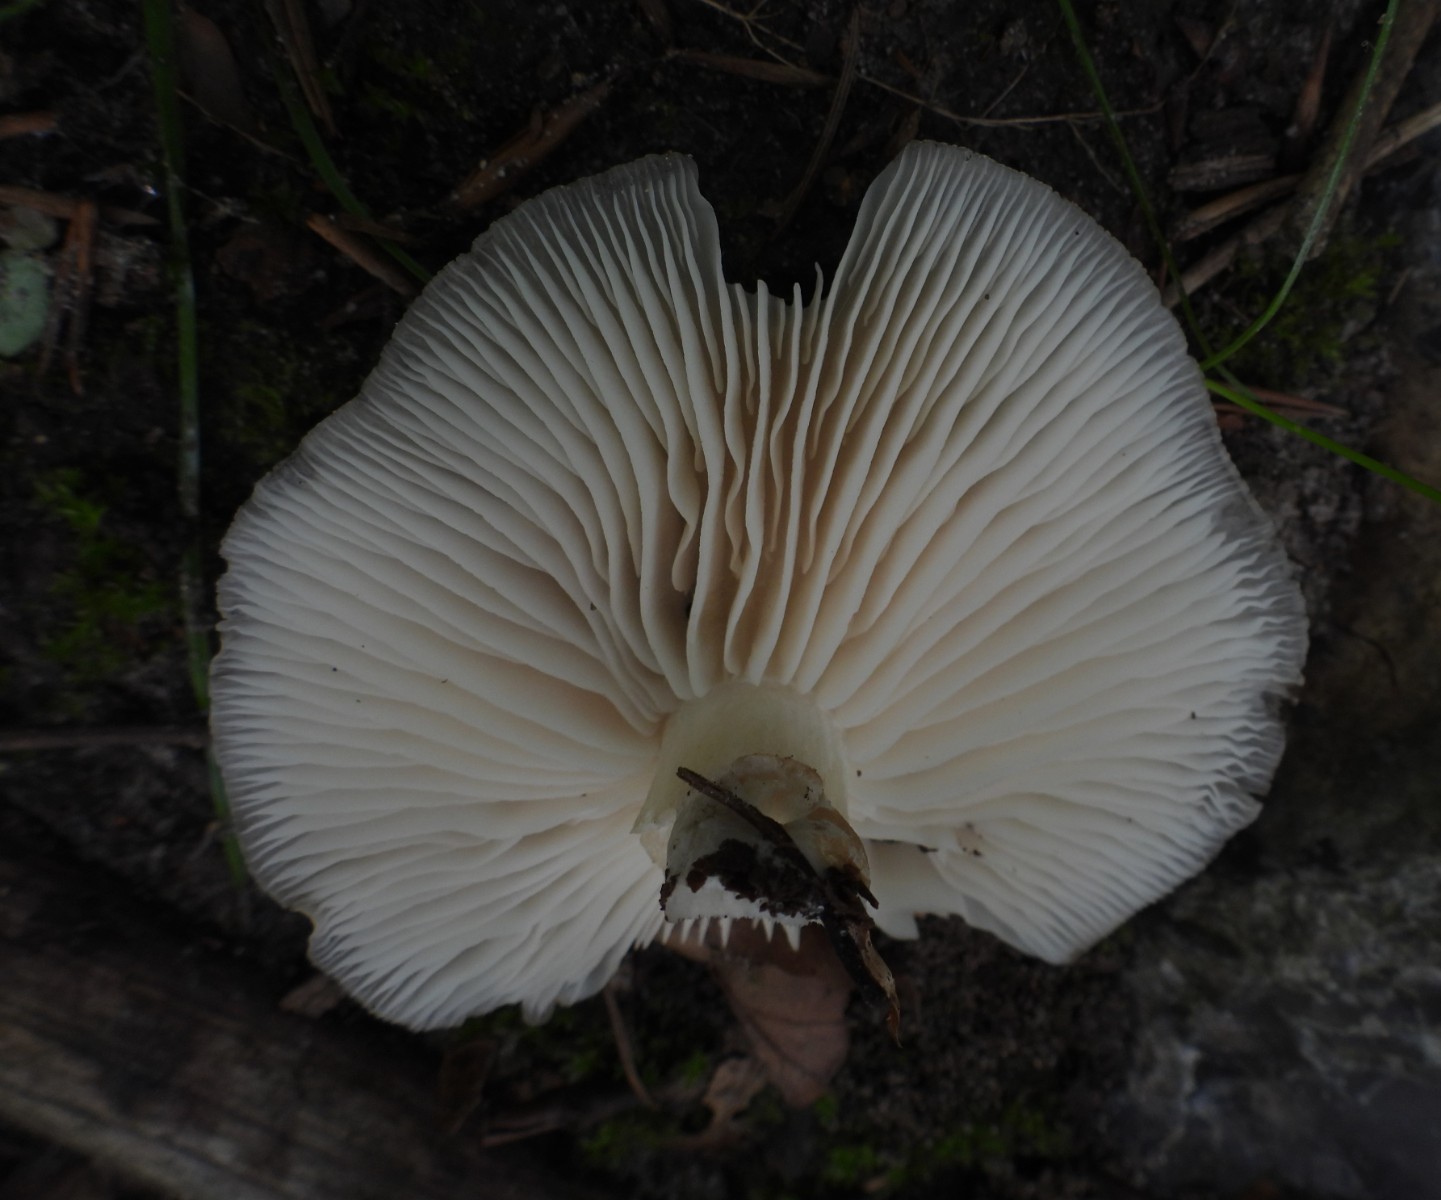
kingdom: Fungi
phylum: Basidiomycota
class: Agaricomycetes
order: Agaricales
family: Tricholomataceae
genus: Megacollybia
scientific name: Megacollybia platyphylla
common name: bredbladet væbnerhat
